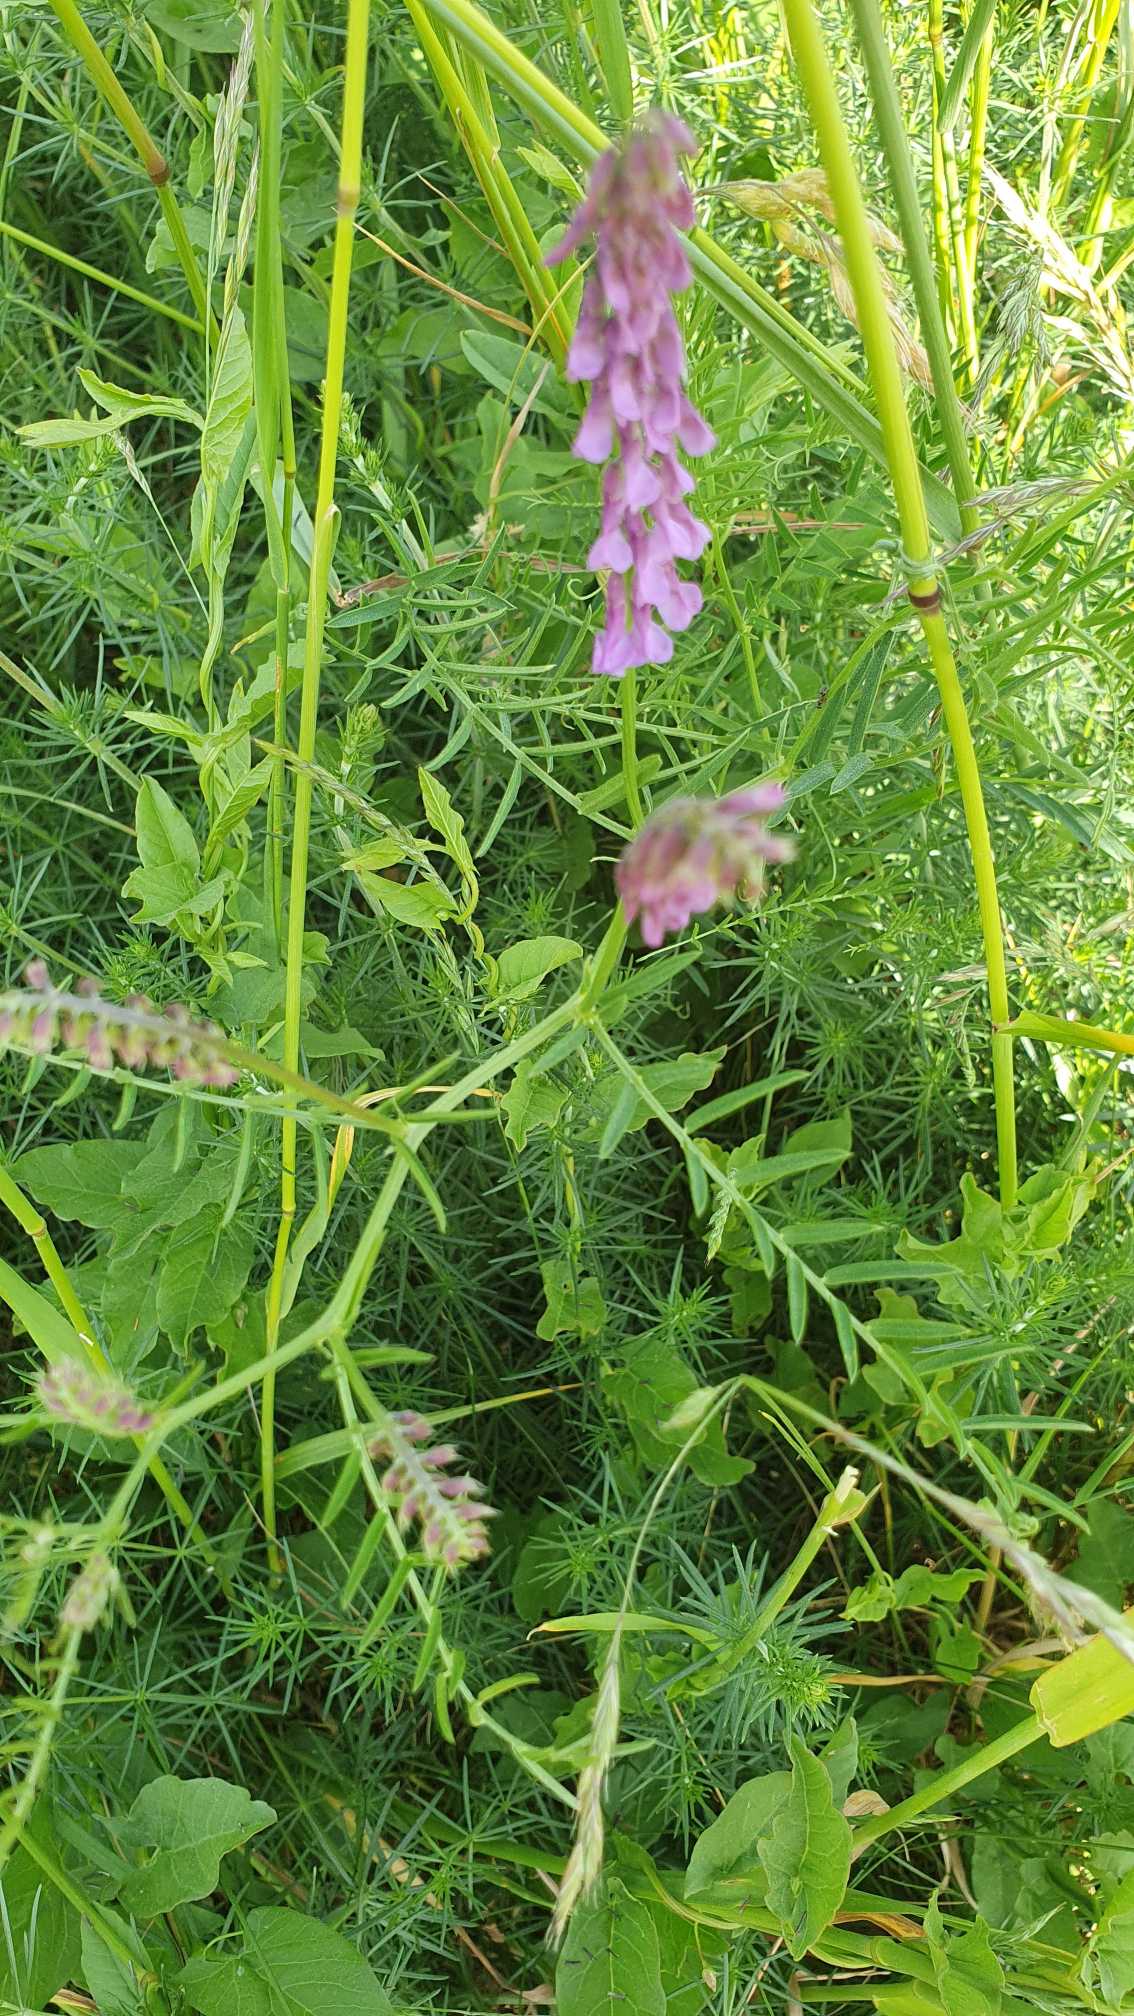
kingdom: Plantae
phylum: Tracheophyta
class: Magnoliopsida
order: Fabales
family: Fabaceae
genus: Vicia
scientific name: Vicia cracca
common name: Muse-vikke
